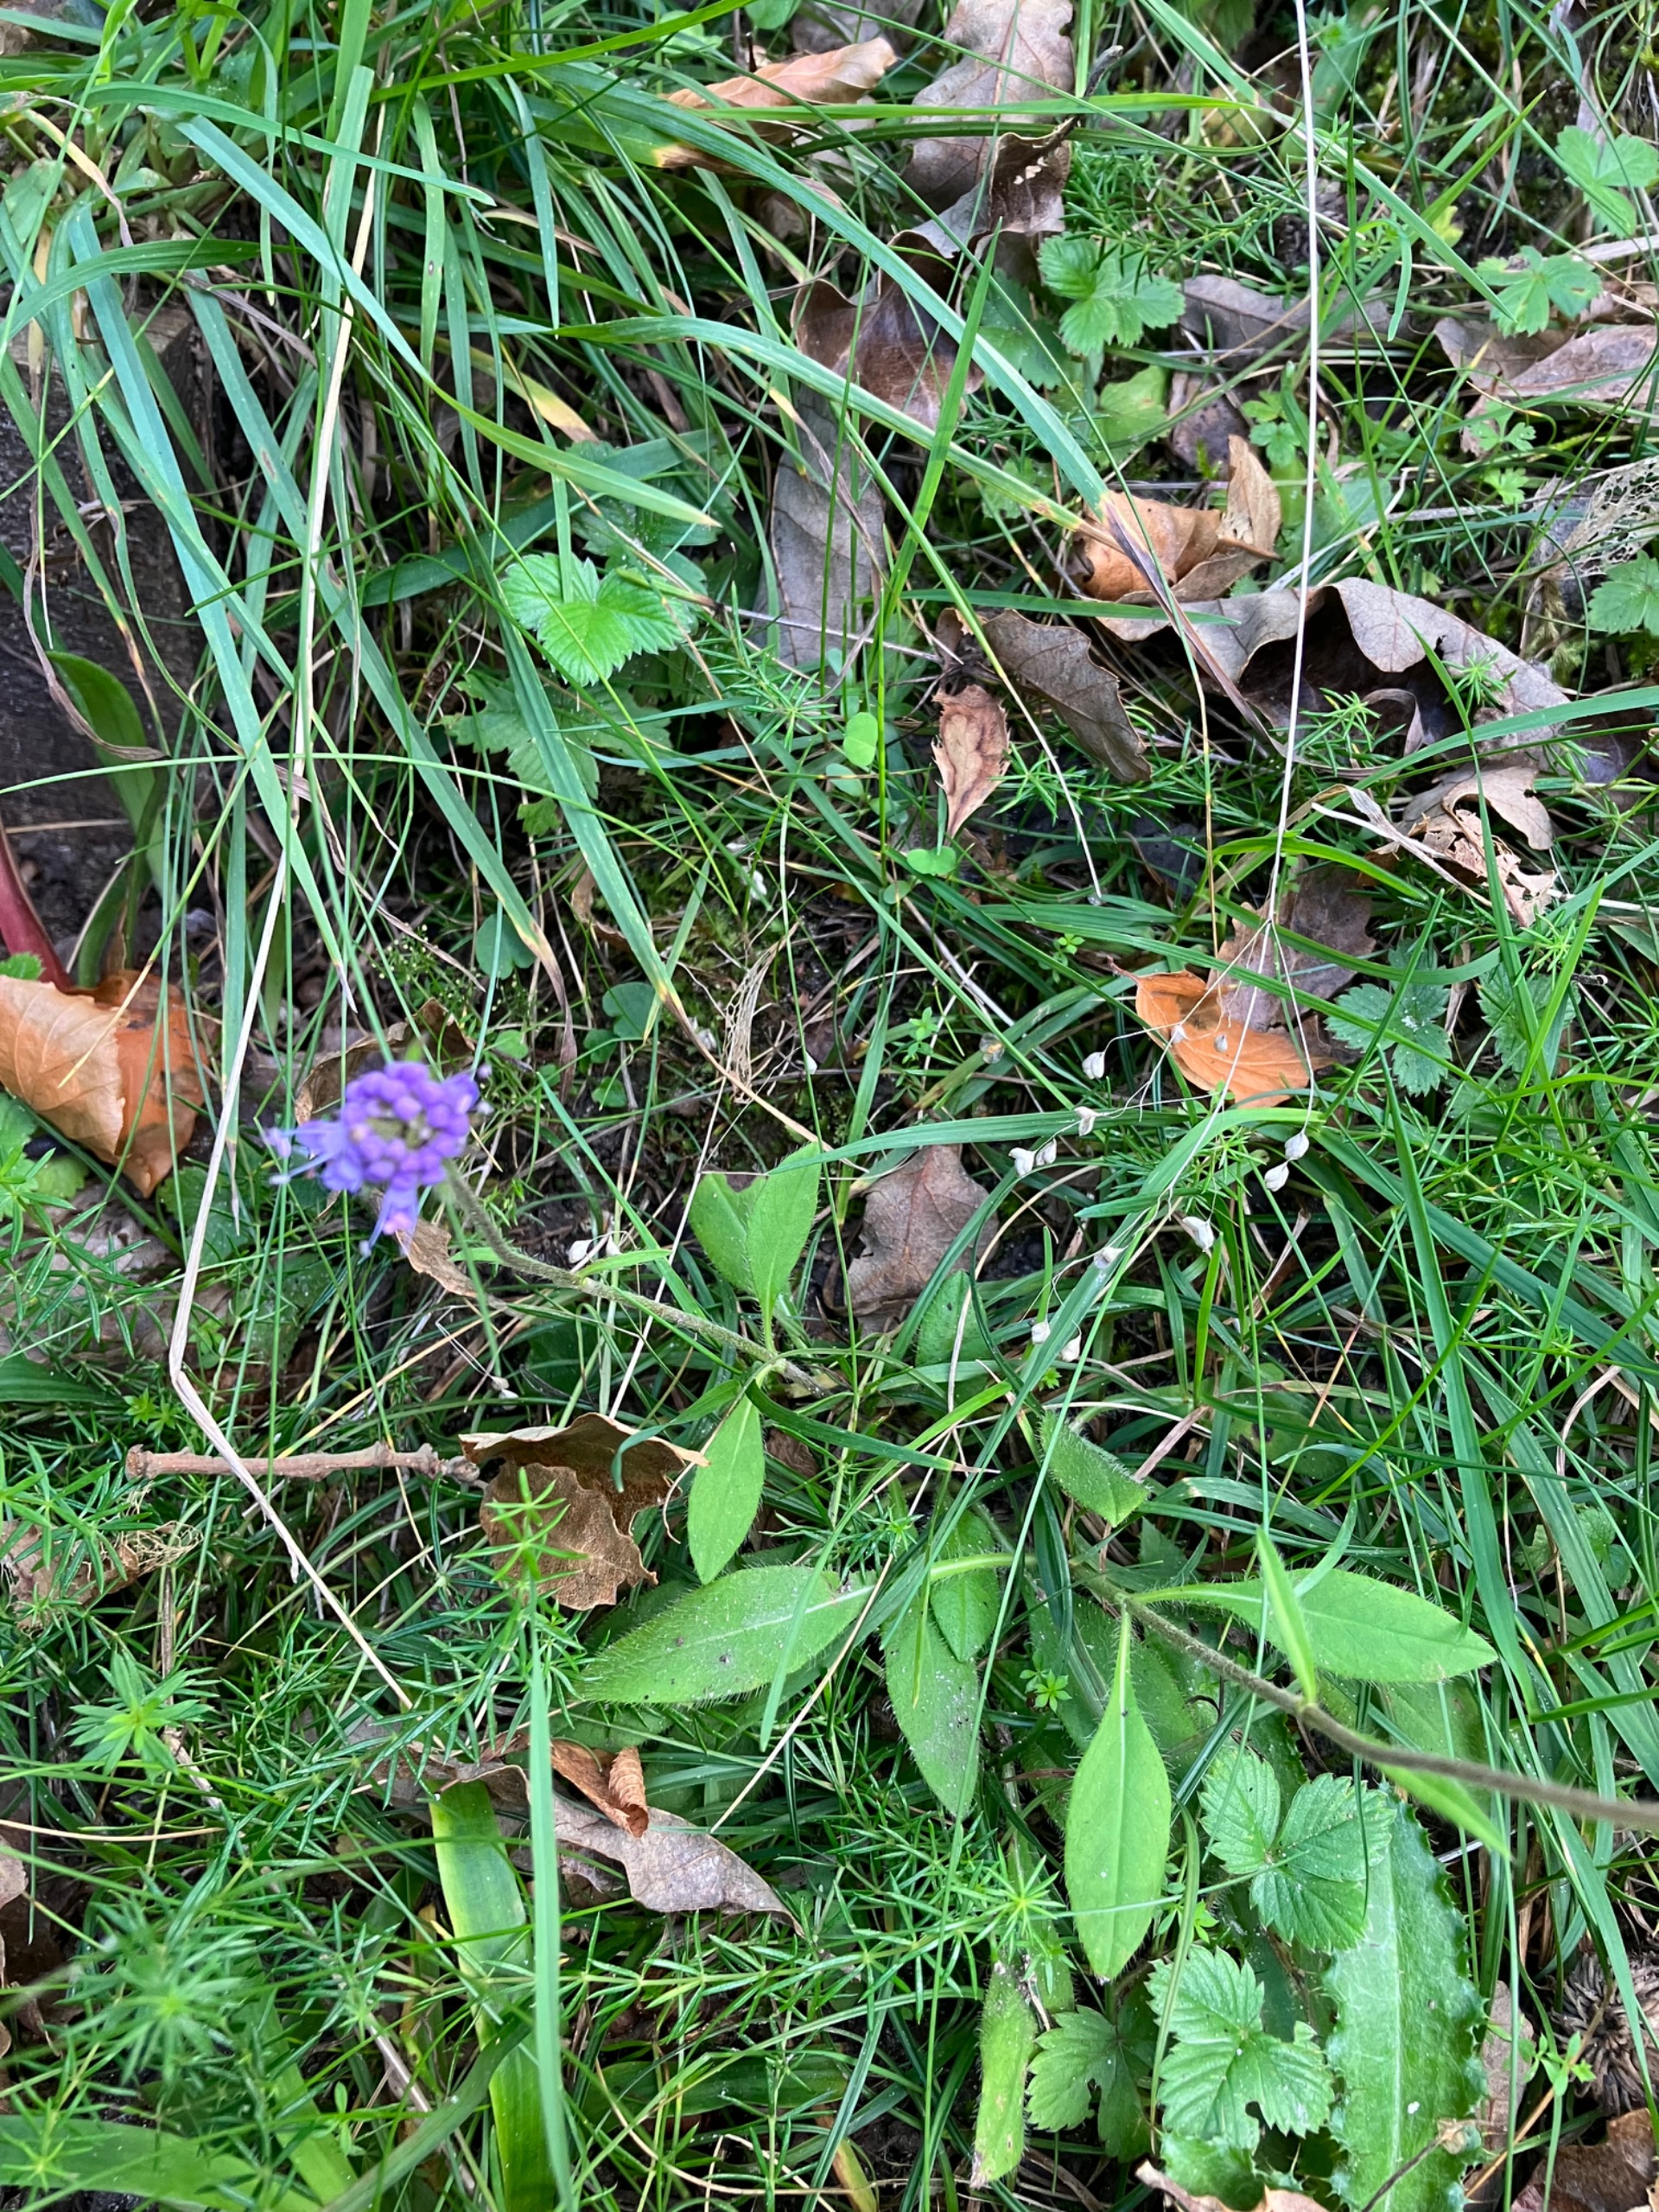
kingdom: Plantae
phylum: Tracheophyta
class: Magnoliopsida
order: Dipsacales
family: Caprifoliaceae
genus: Succisa
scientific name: Succisa pratensis
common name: Djævelsbid
